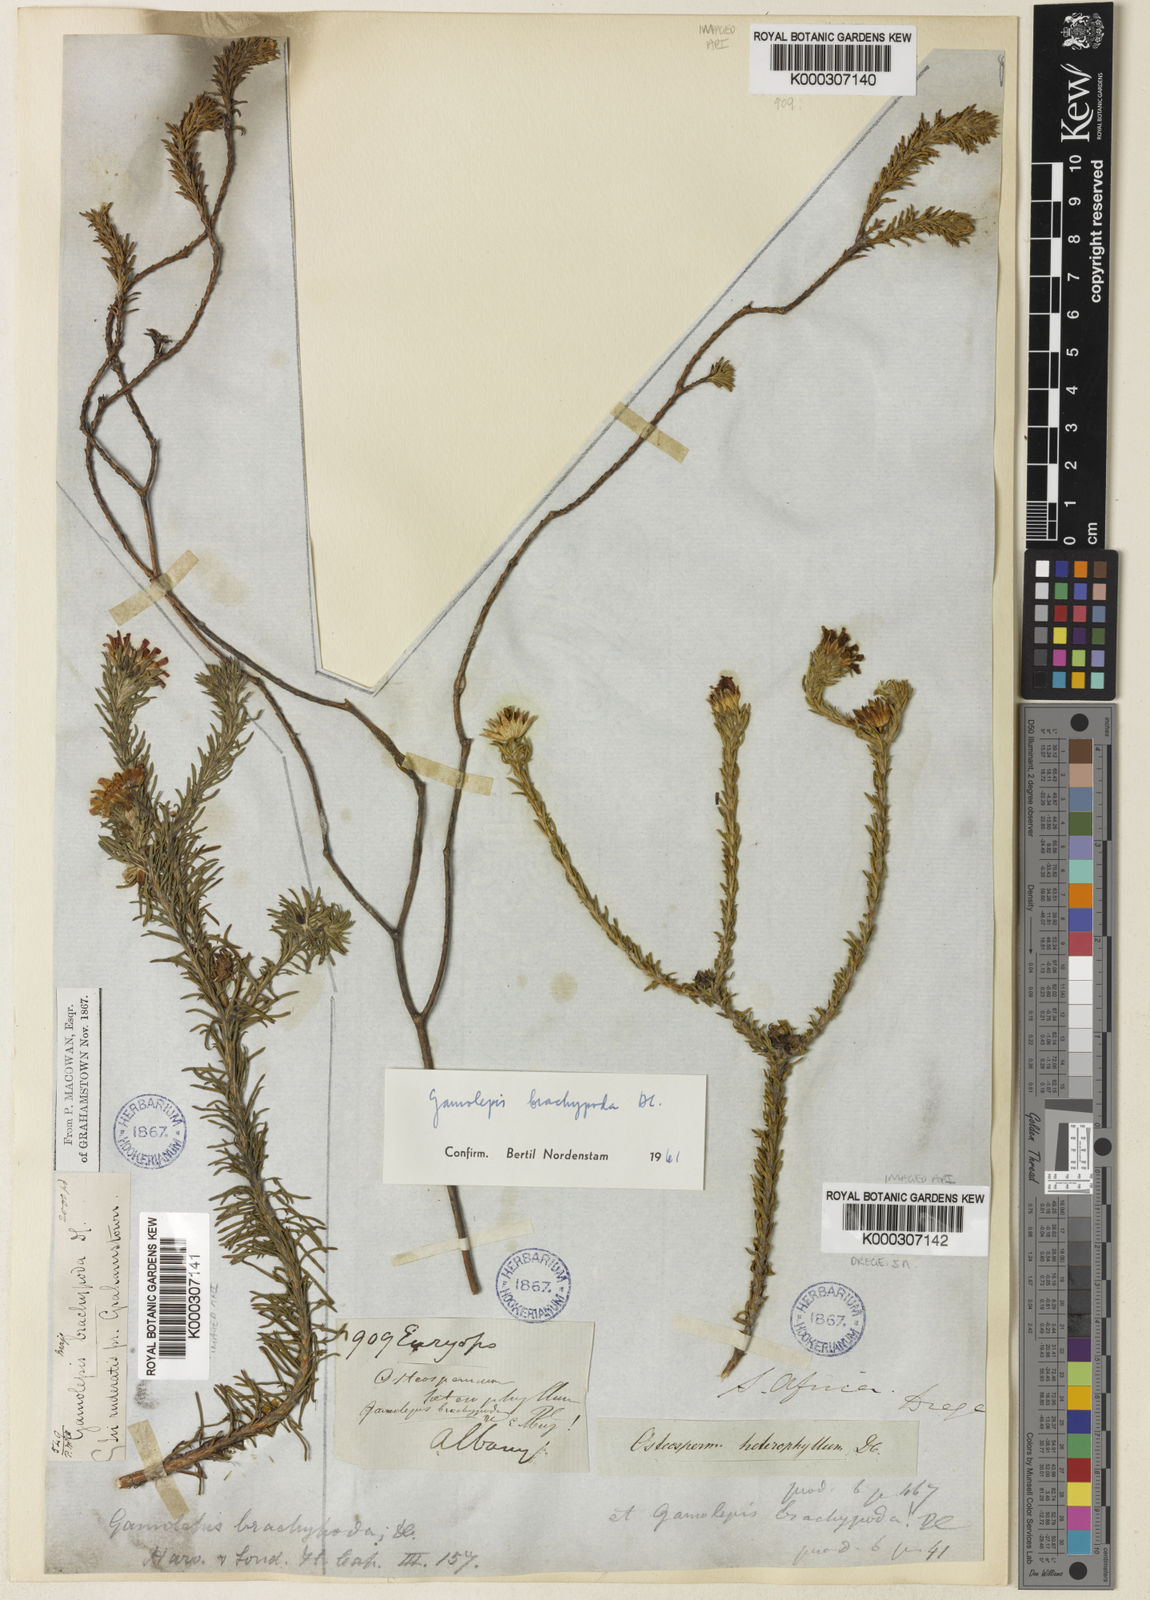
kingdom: Plantae
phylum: Tracheophyta
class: Magnoliopsida
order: Asterales
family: Asteraceae
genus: Euryops
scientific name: Euryops brachypodus
